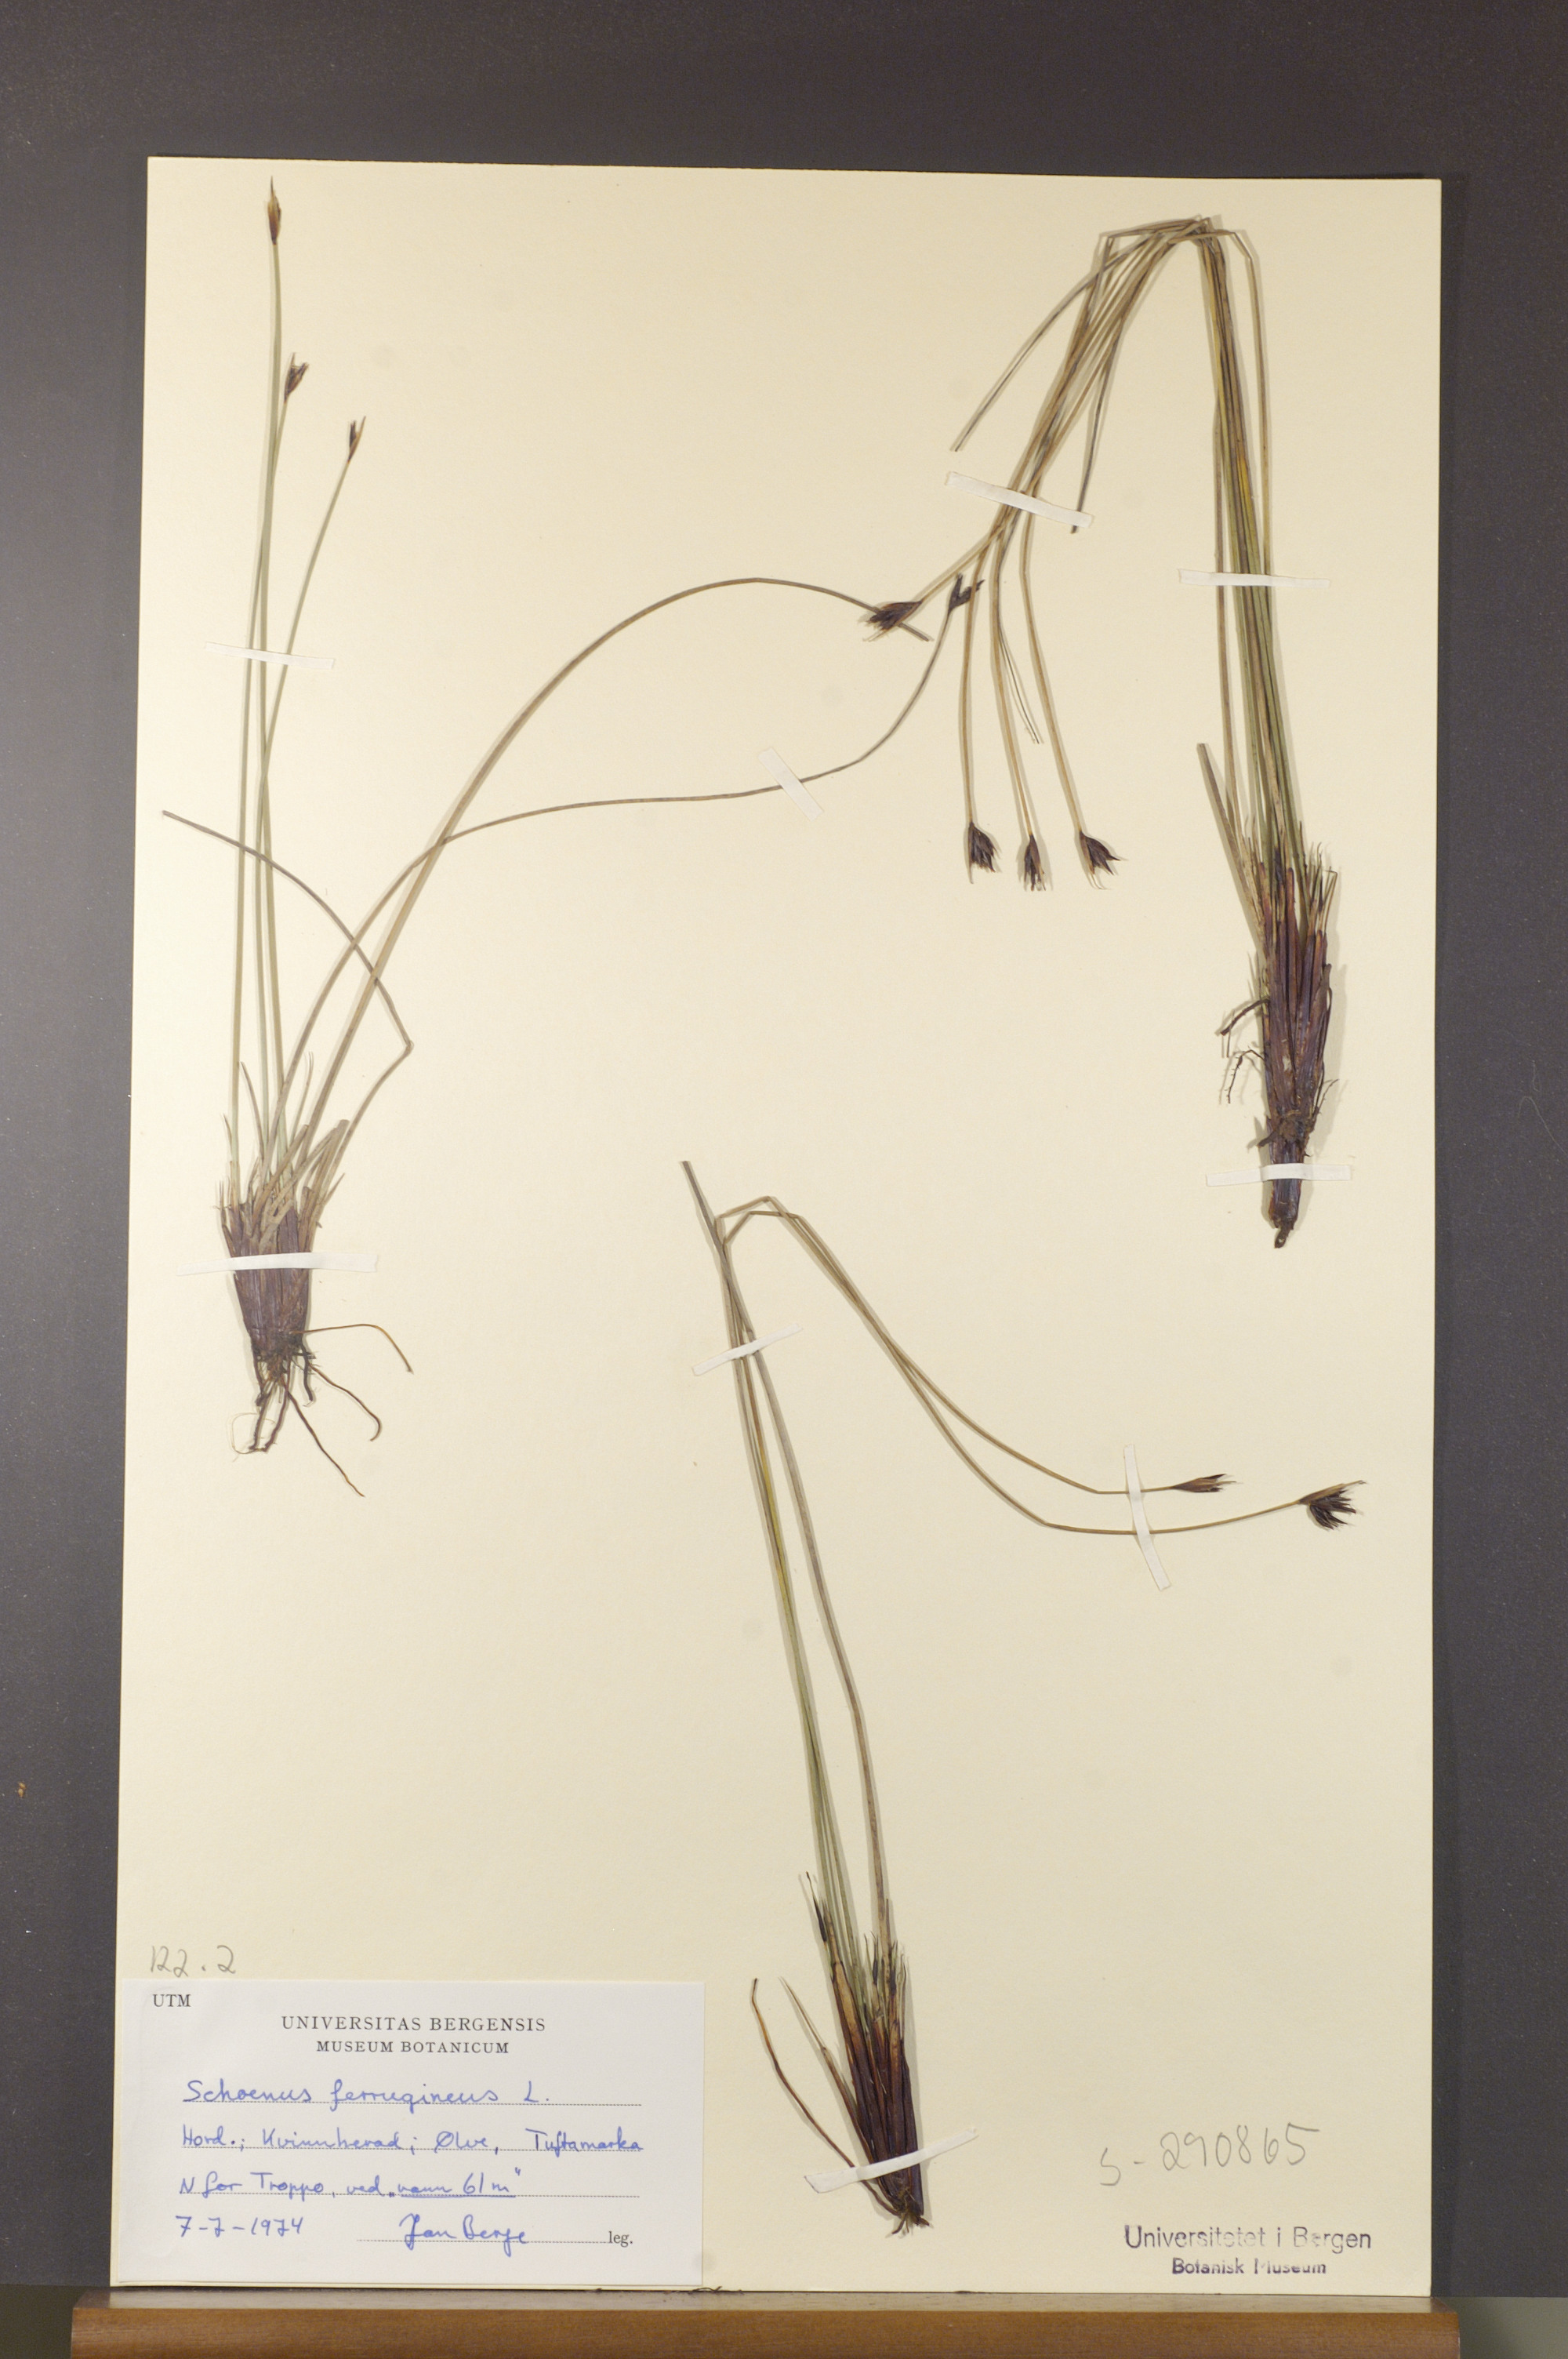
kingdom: Plantae
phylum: Tracheophyta
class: Liliopsida
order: Poales
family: Cyperaceae
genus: Schoenus
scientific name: Schoenus ferrugineus
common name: Brown bog-rush
